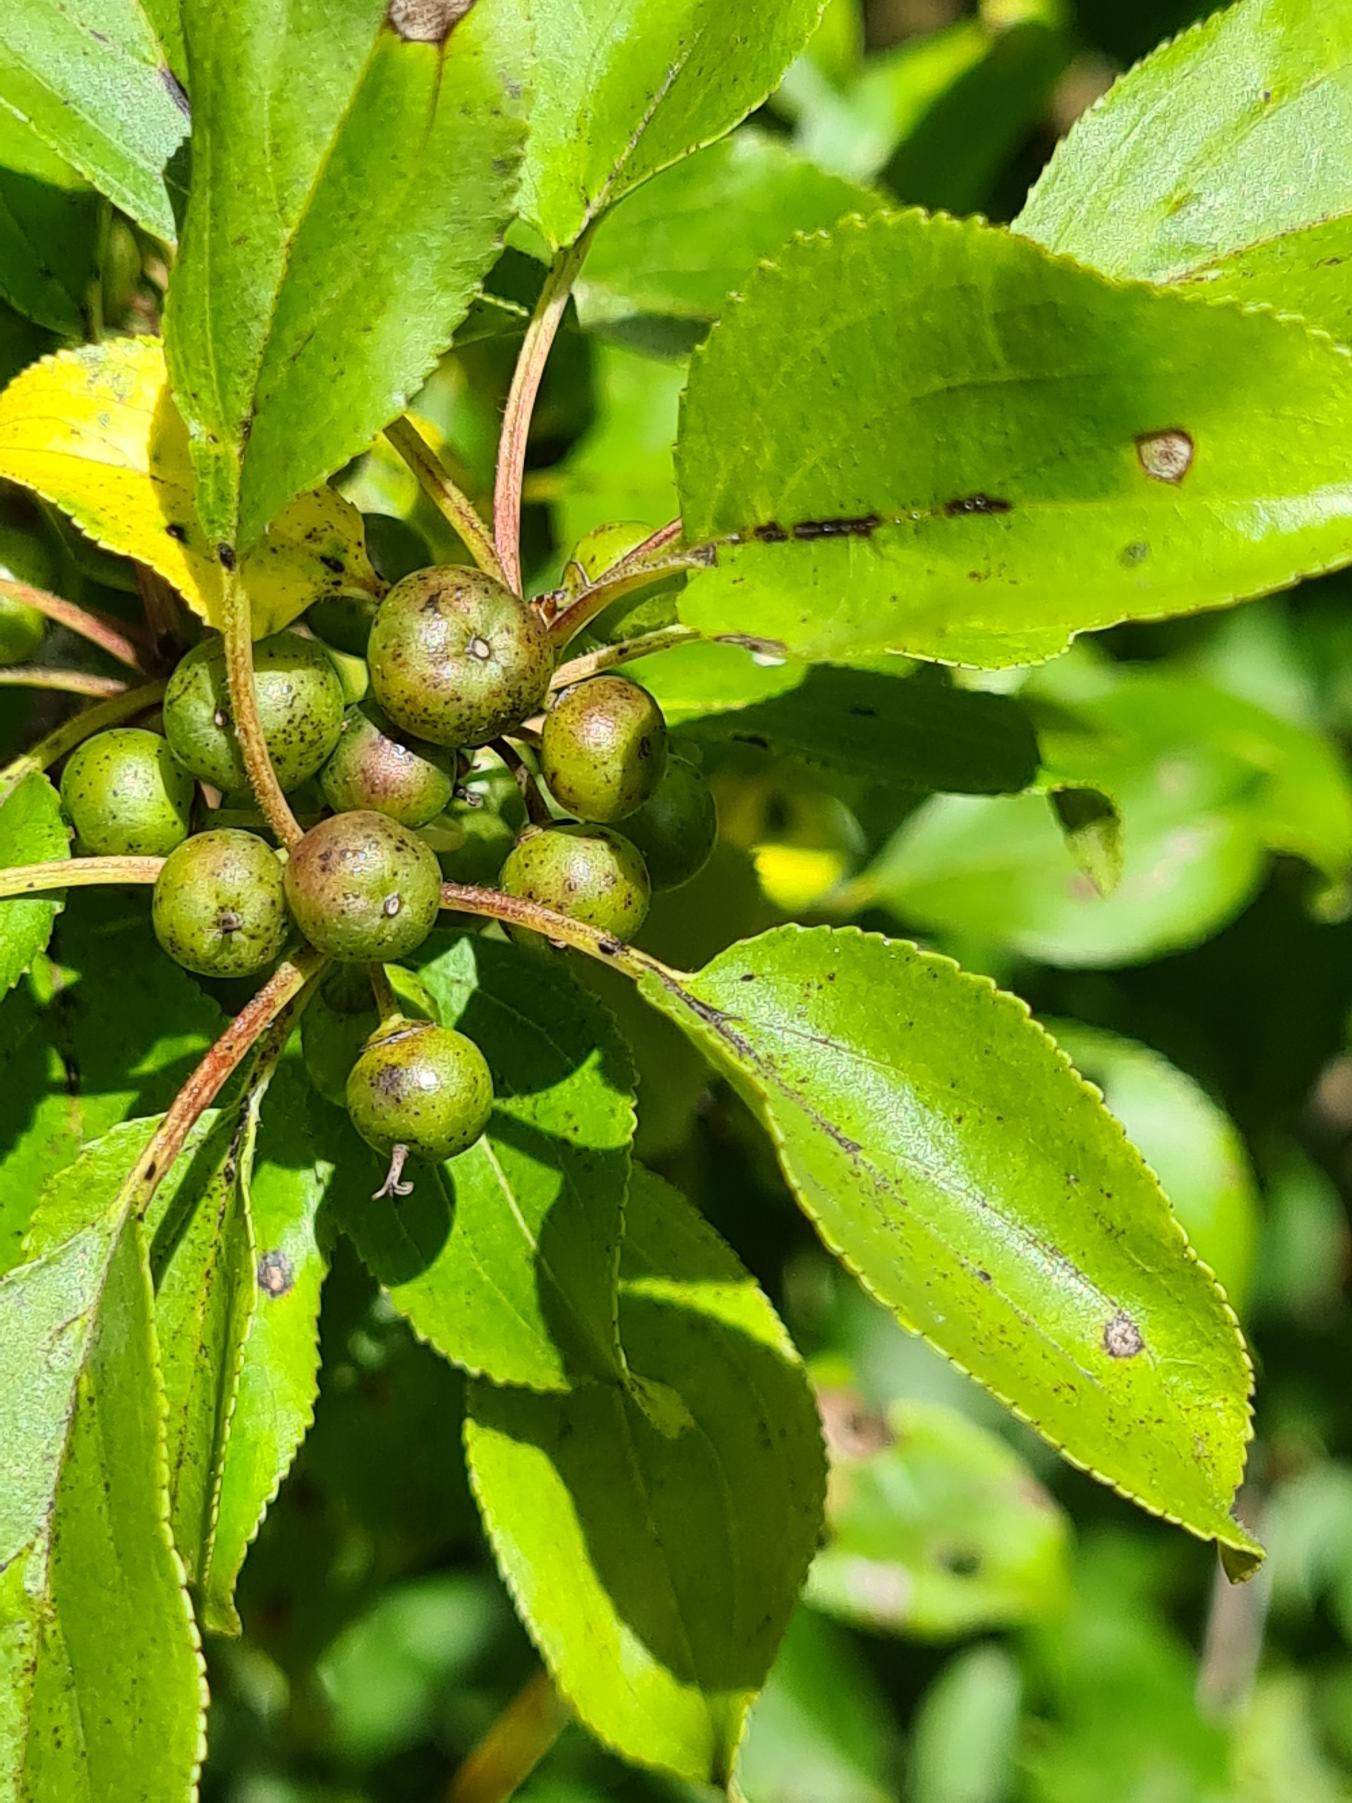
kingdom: Plantae
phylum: Tracheophyta
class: Magnoliopsida
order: Rosales
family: Rhamnaceae
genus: Rhamnus
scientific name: Rhamnus cathartica
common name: Vrietorn
